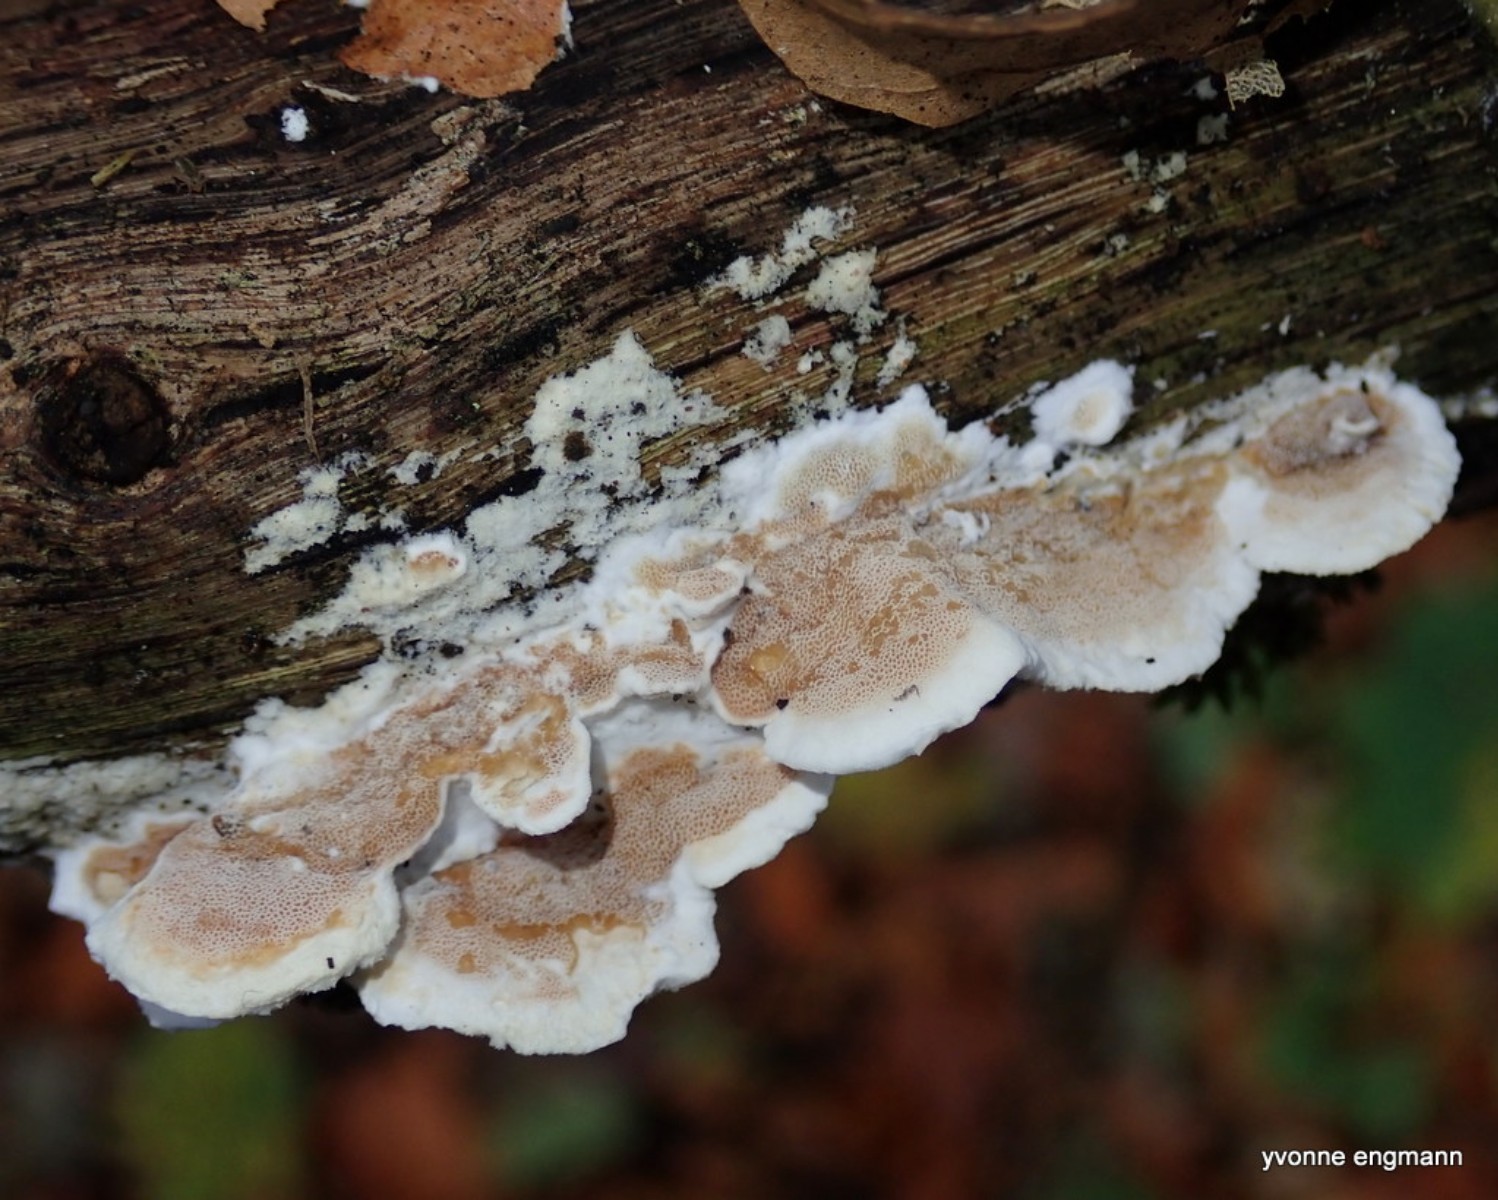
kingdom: Fungi
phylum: Basidiomycota
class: Agaricomycetes
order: Polyporales
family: Irpicaceae
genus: Byssomerulius
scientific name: Byssomerulius corium
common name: læder-åresvamp
